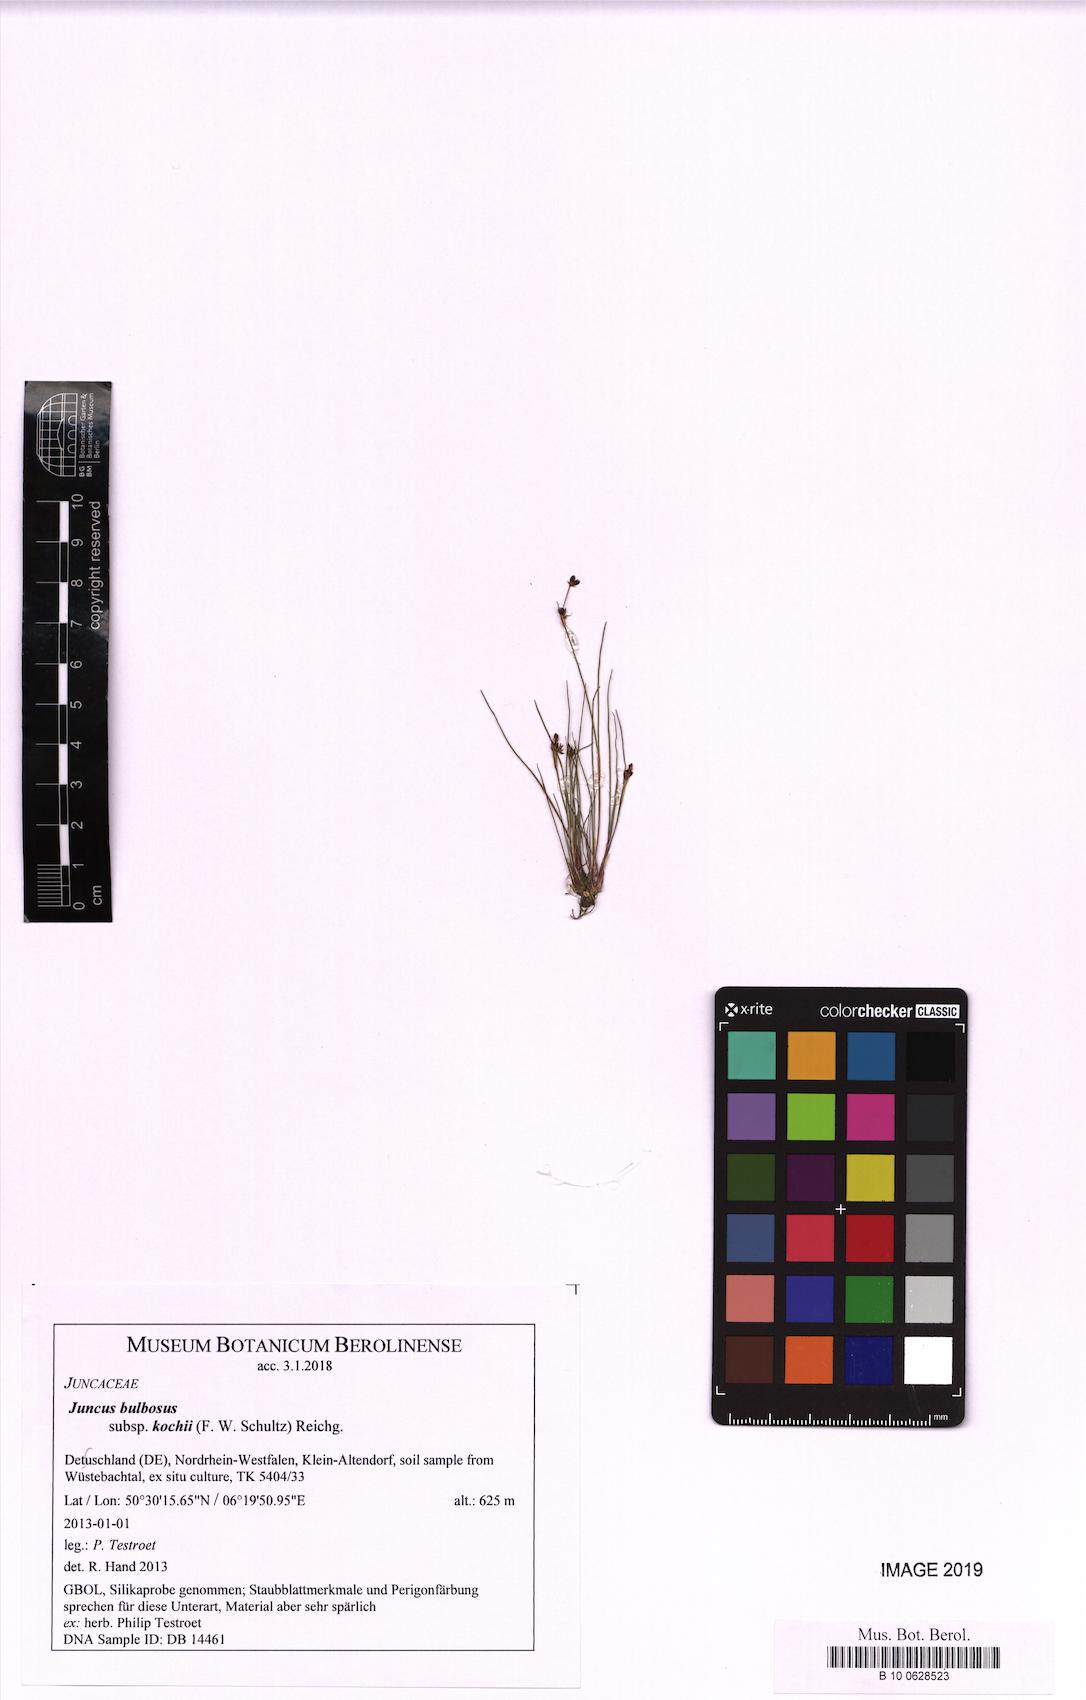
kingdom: Plantae
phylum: Tracheophyta
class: Liliopsida
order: Poales
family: Juncaceae
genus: Juncus
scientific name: Juncus bulbosus
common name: Bulbous rush
